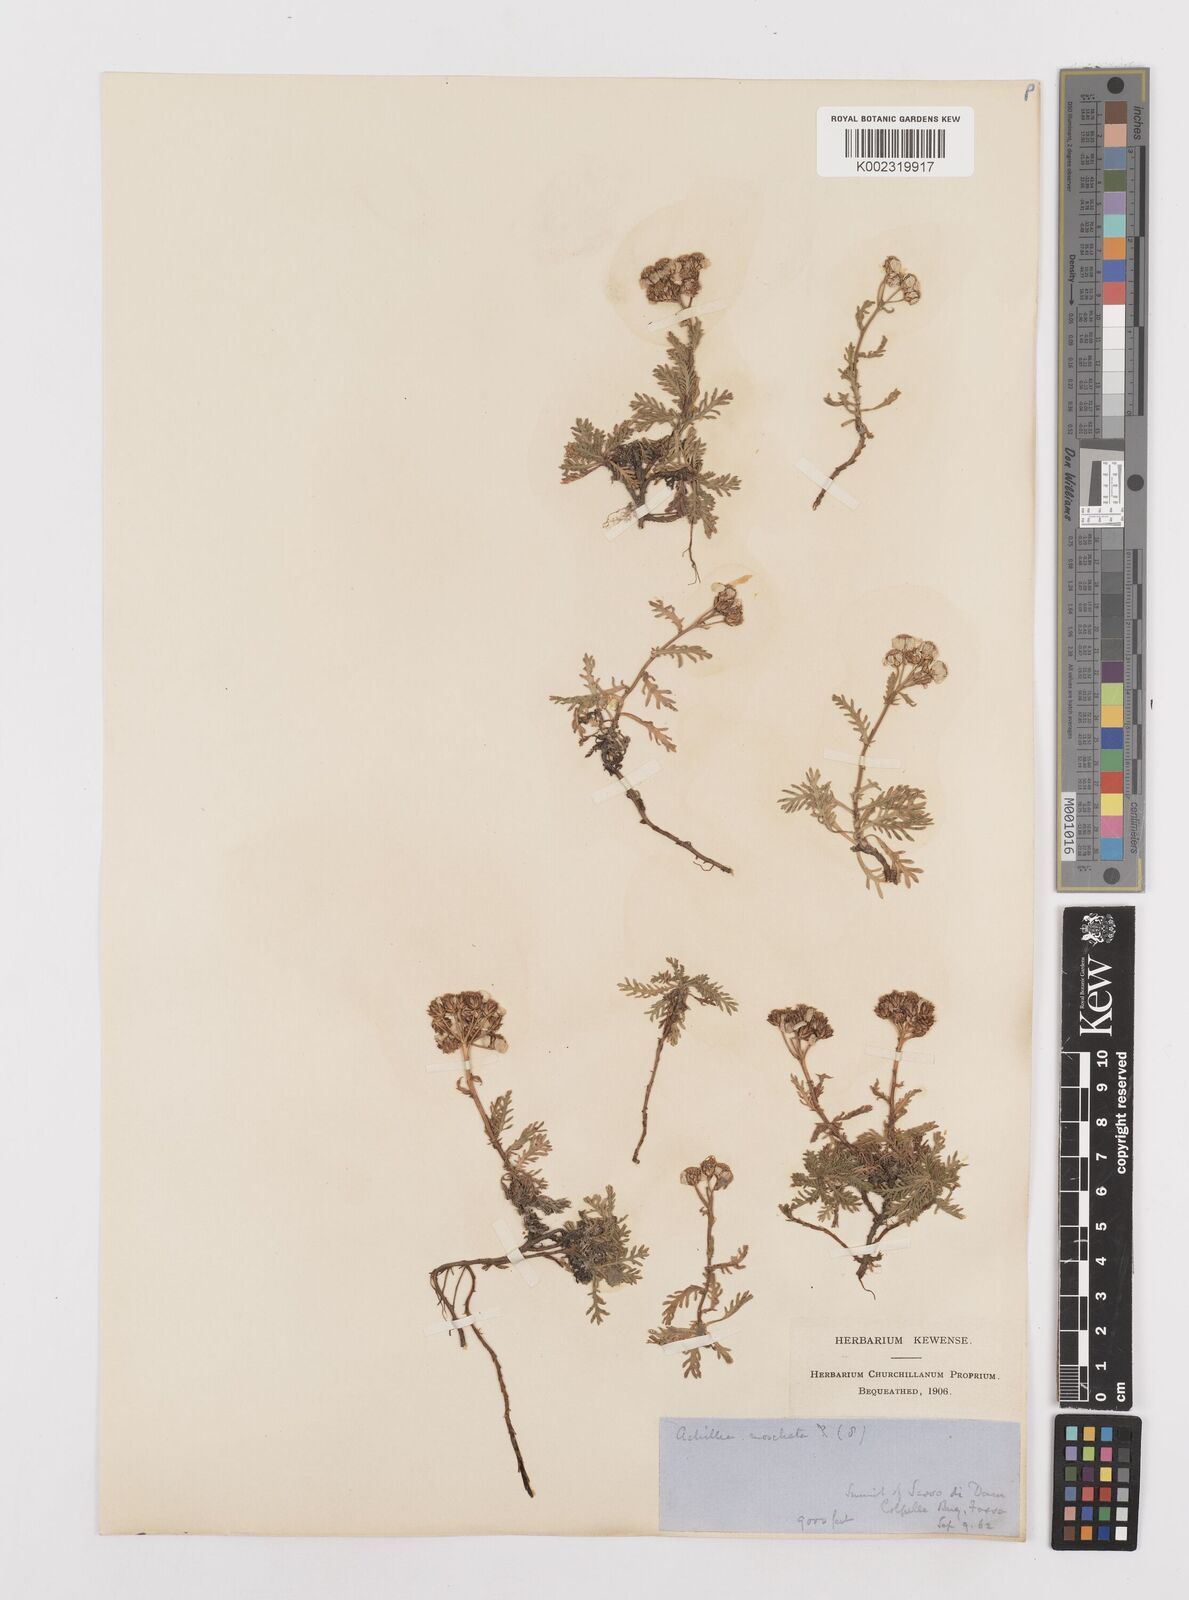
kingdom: Plantae
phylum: Tracheophyta
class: Magnoliopsida
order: Asterales
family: Asteraceae
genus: Achillea
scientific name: Achillea erba-rotta
